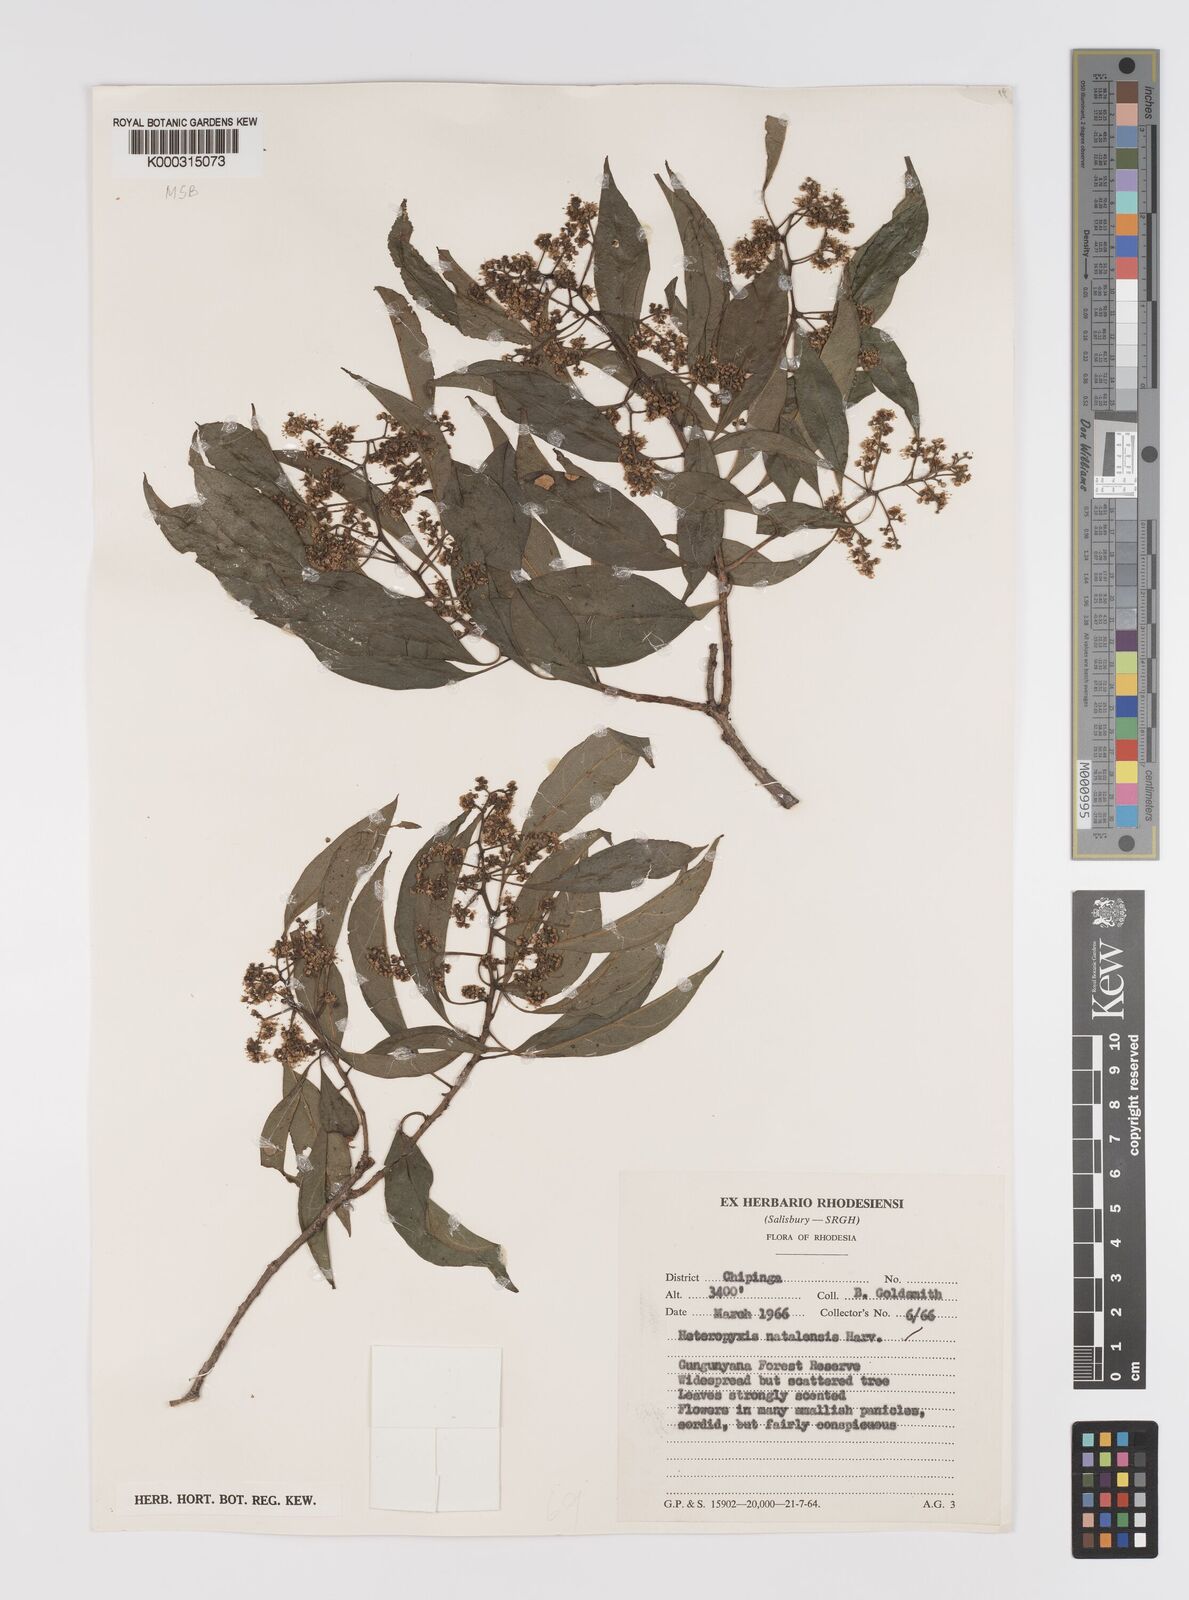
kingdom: Plantae
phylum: Tracheophyta
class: Magnoliopsida
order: Myrtales
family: Myrtaceae
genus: Heteropyxis
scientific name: Heteropyxis dehniae
